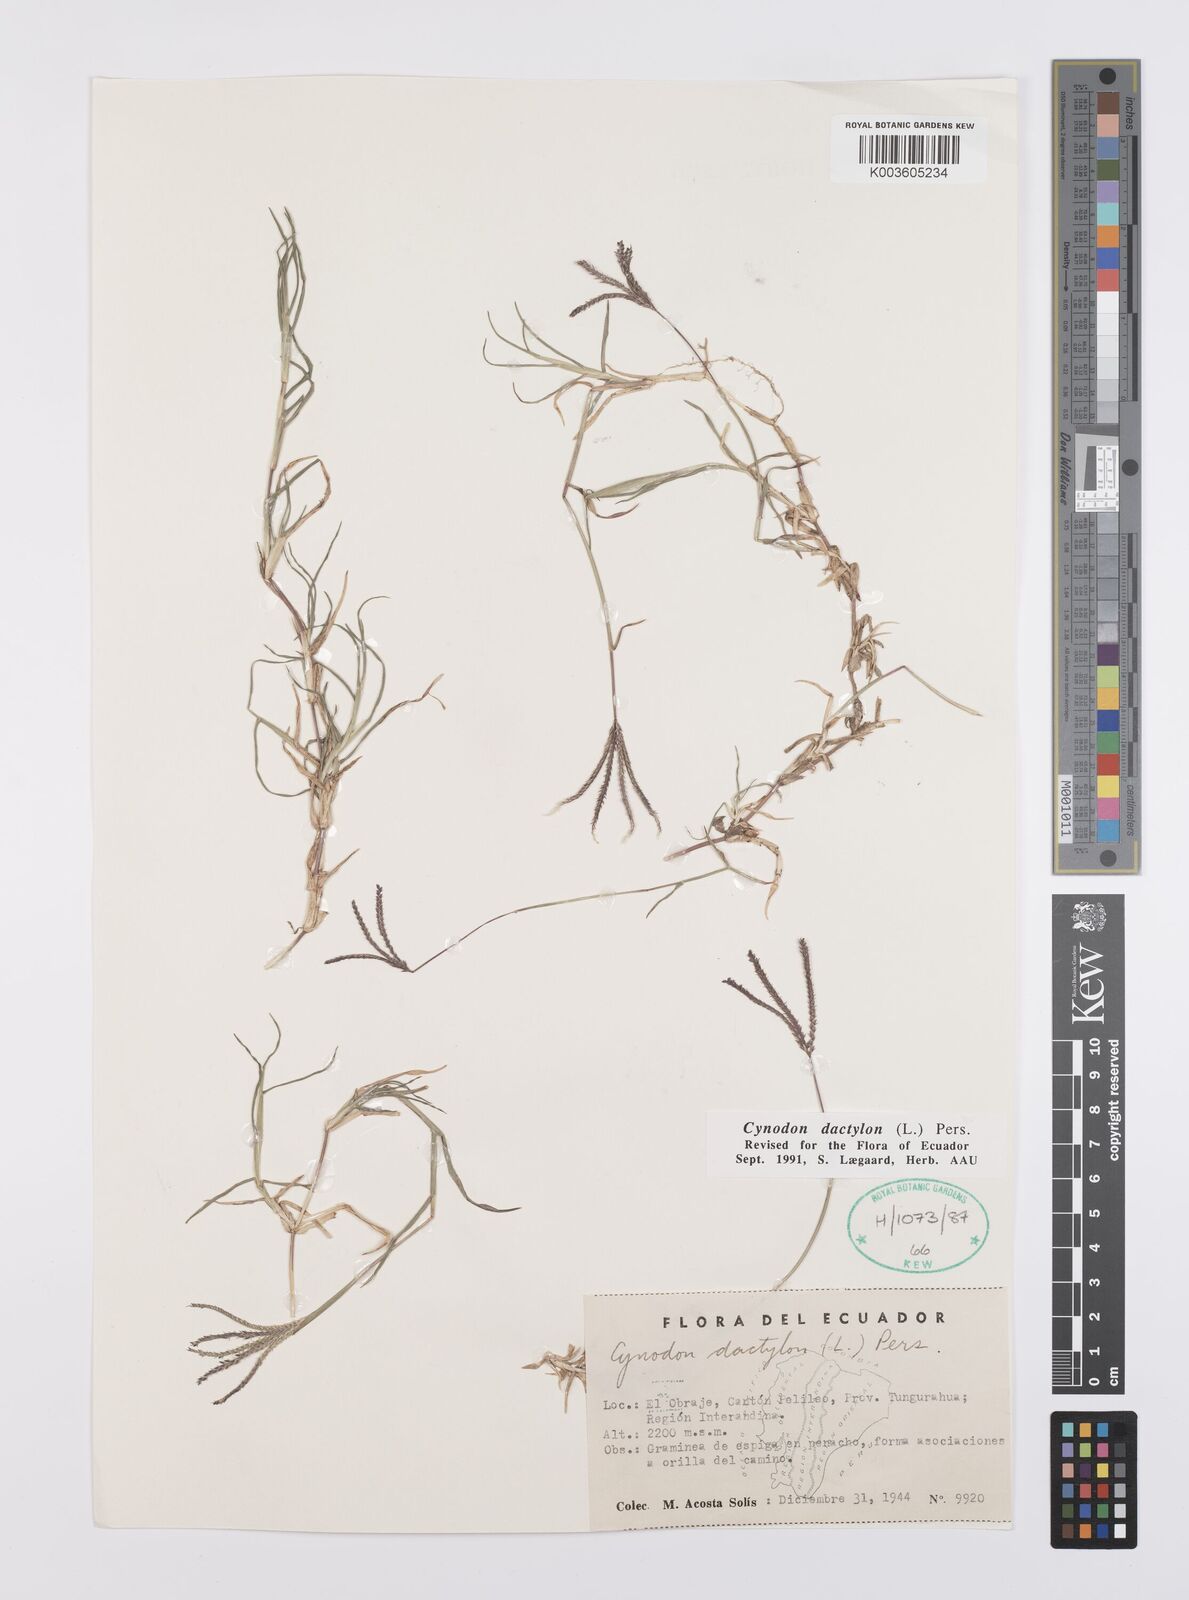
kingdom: Plantae
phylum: Tracheophyta
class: Liliopsida
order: Poales
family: Poaceae
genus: Cynodon
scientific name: Cynodon dactylon
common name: Bermuda grass
